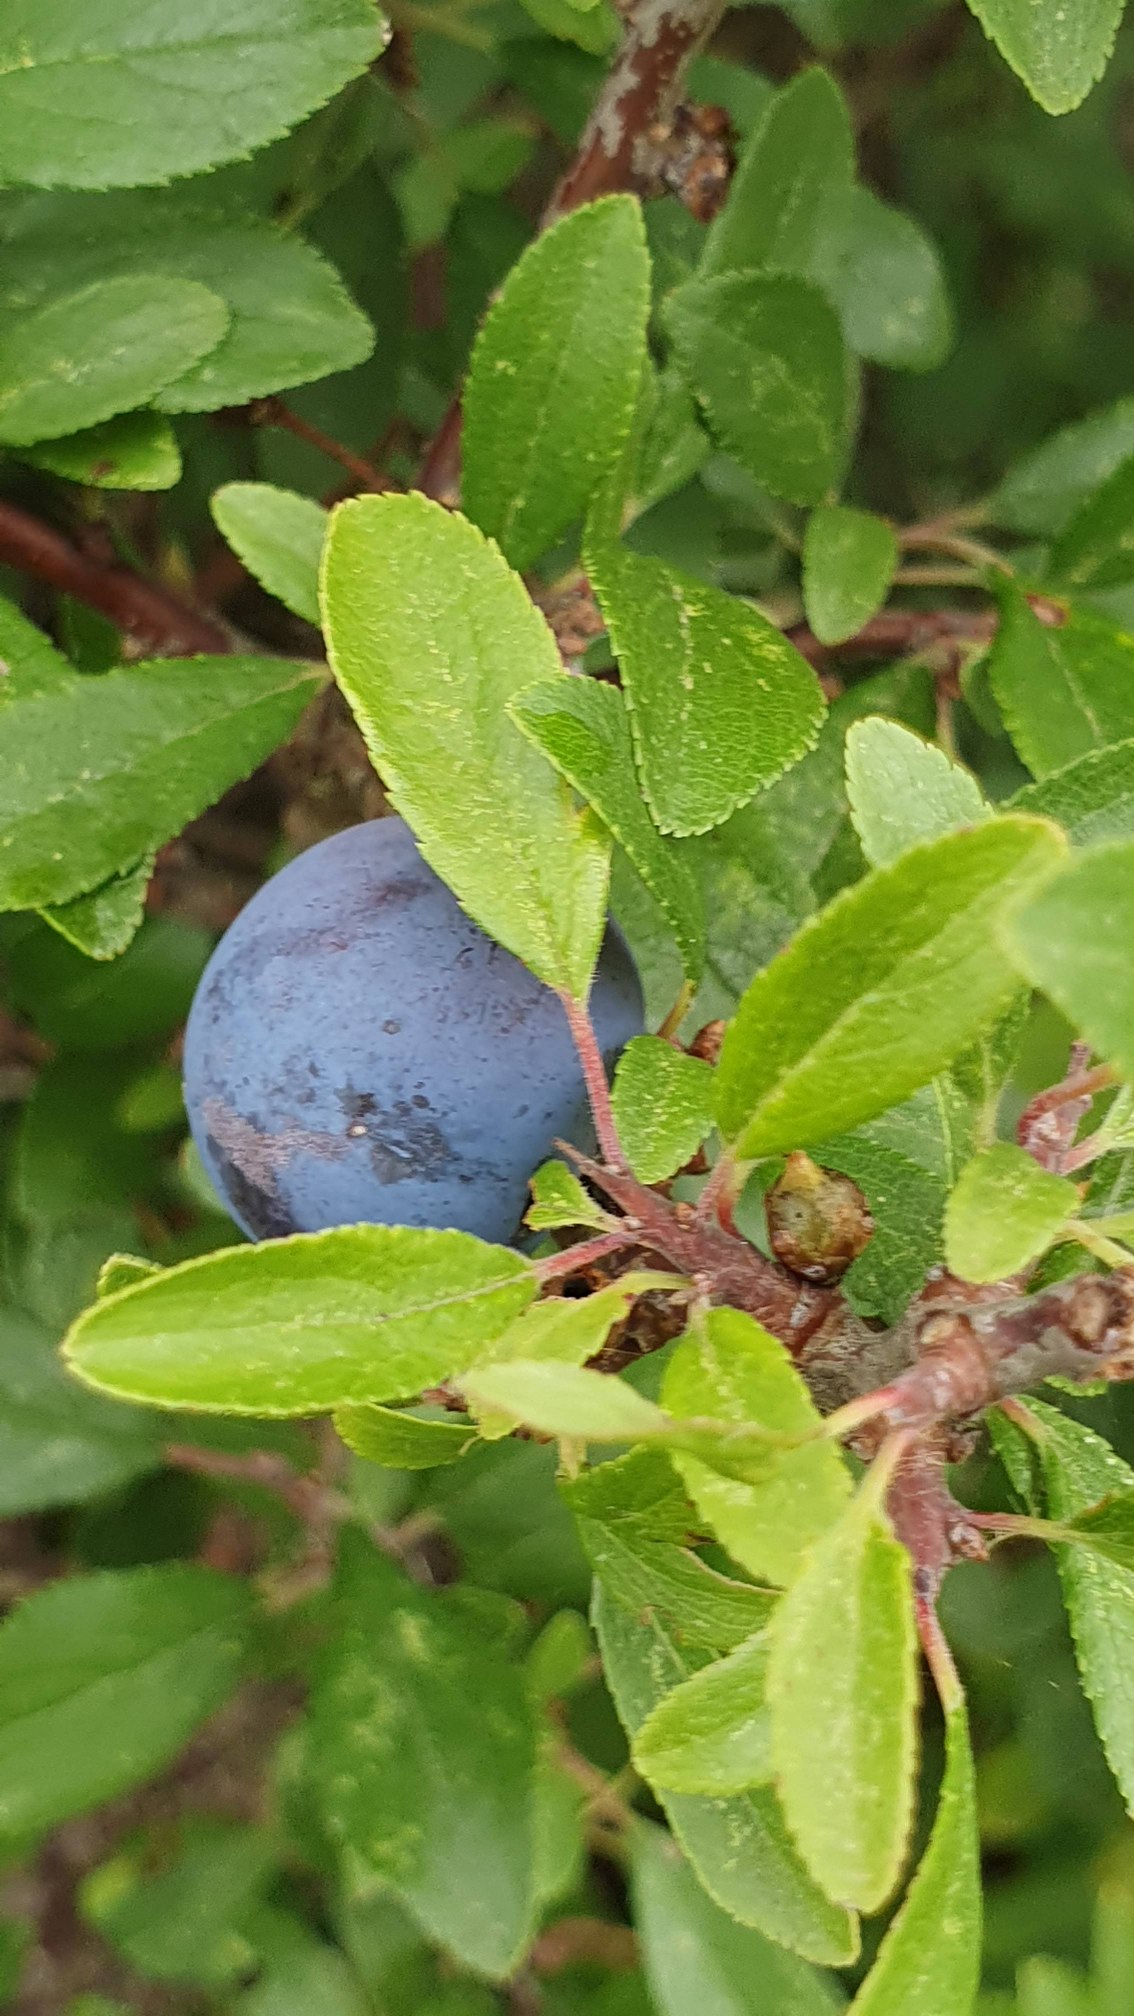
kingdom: Plantae
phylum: Tracheophyta
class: Magnoliopsida
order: Rosales
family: Rosaceae
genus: Prunus
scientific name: Prunus spinosa
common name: Slåen
